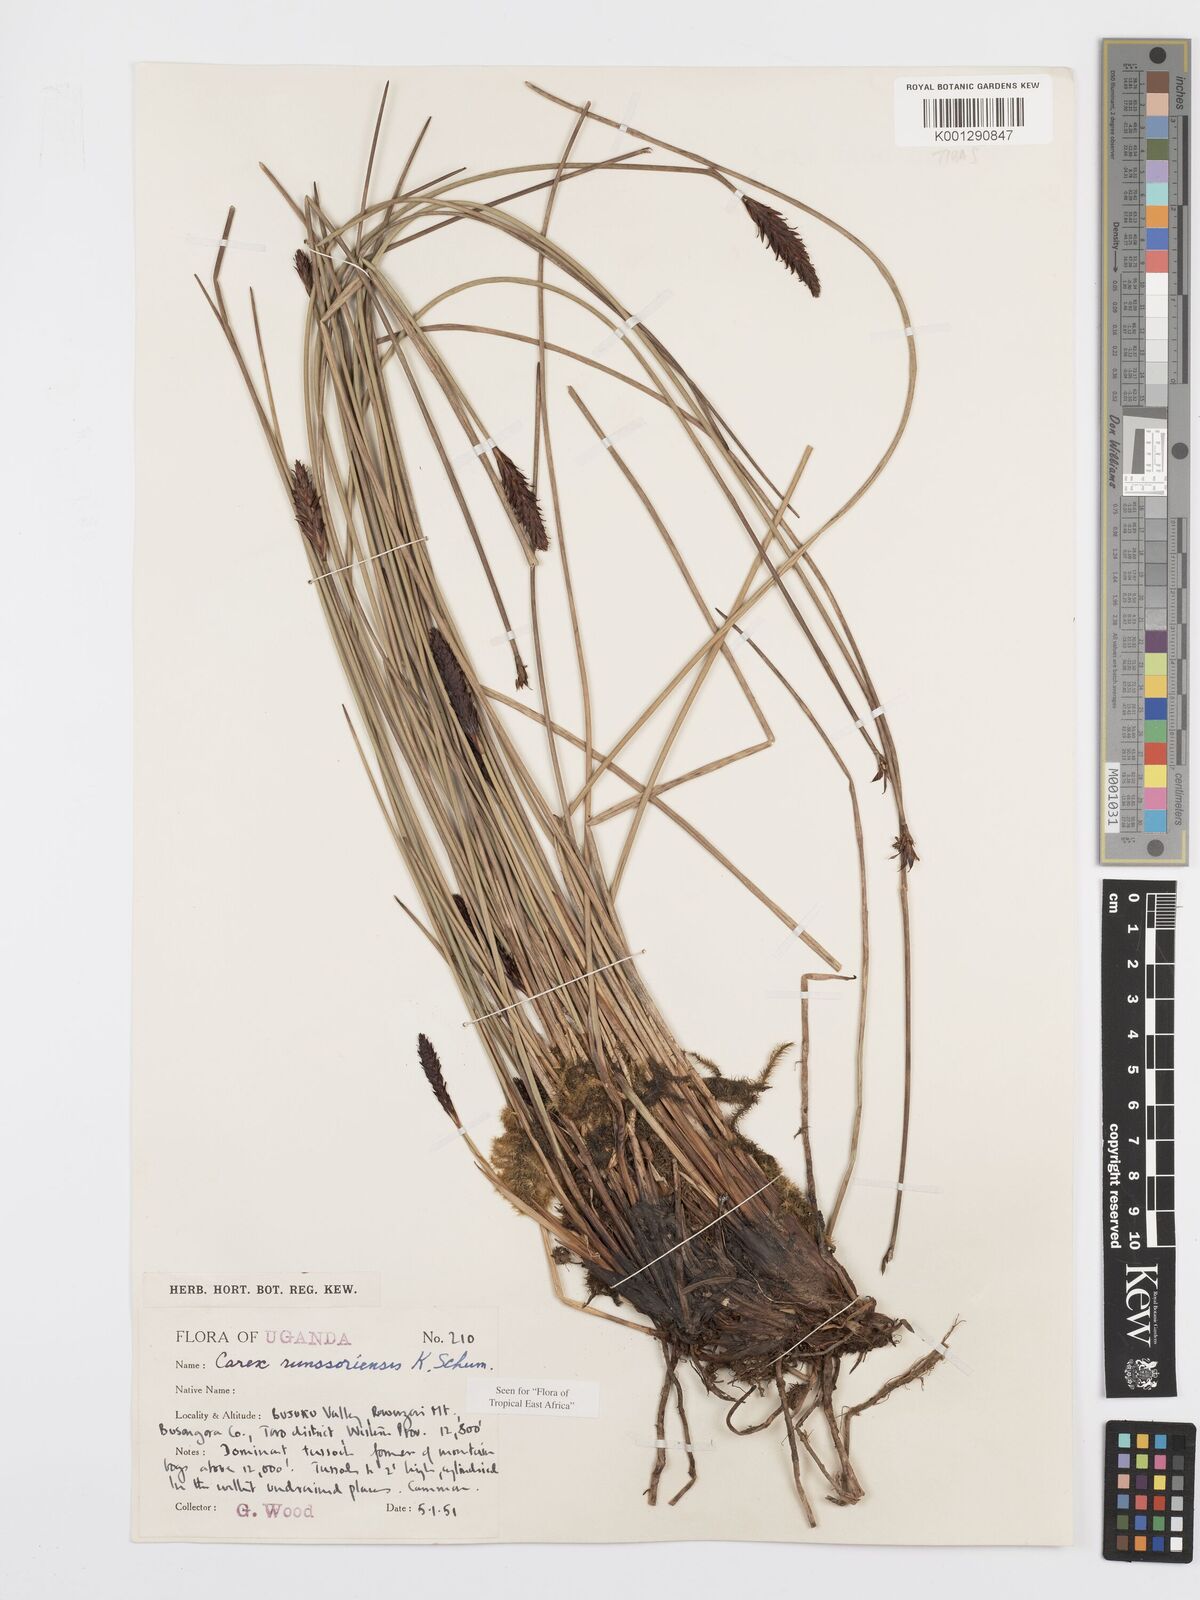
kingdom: Plantae
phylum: Tracheophyta
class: Liliopsida
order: Poales
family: Cyperaceae
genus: Carex
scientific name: Carex runssoroensis
